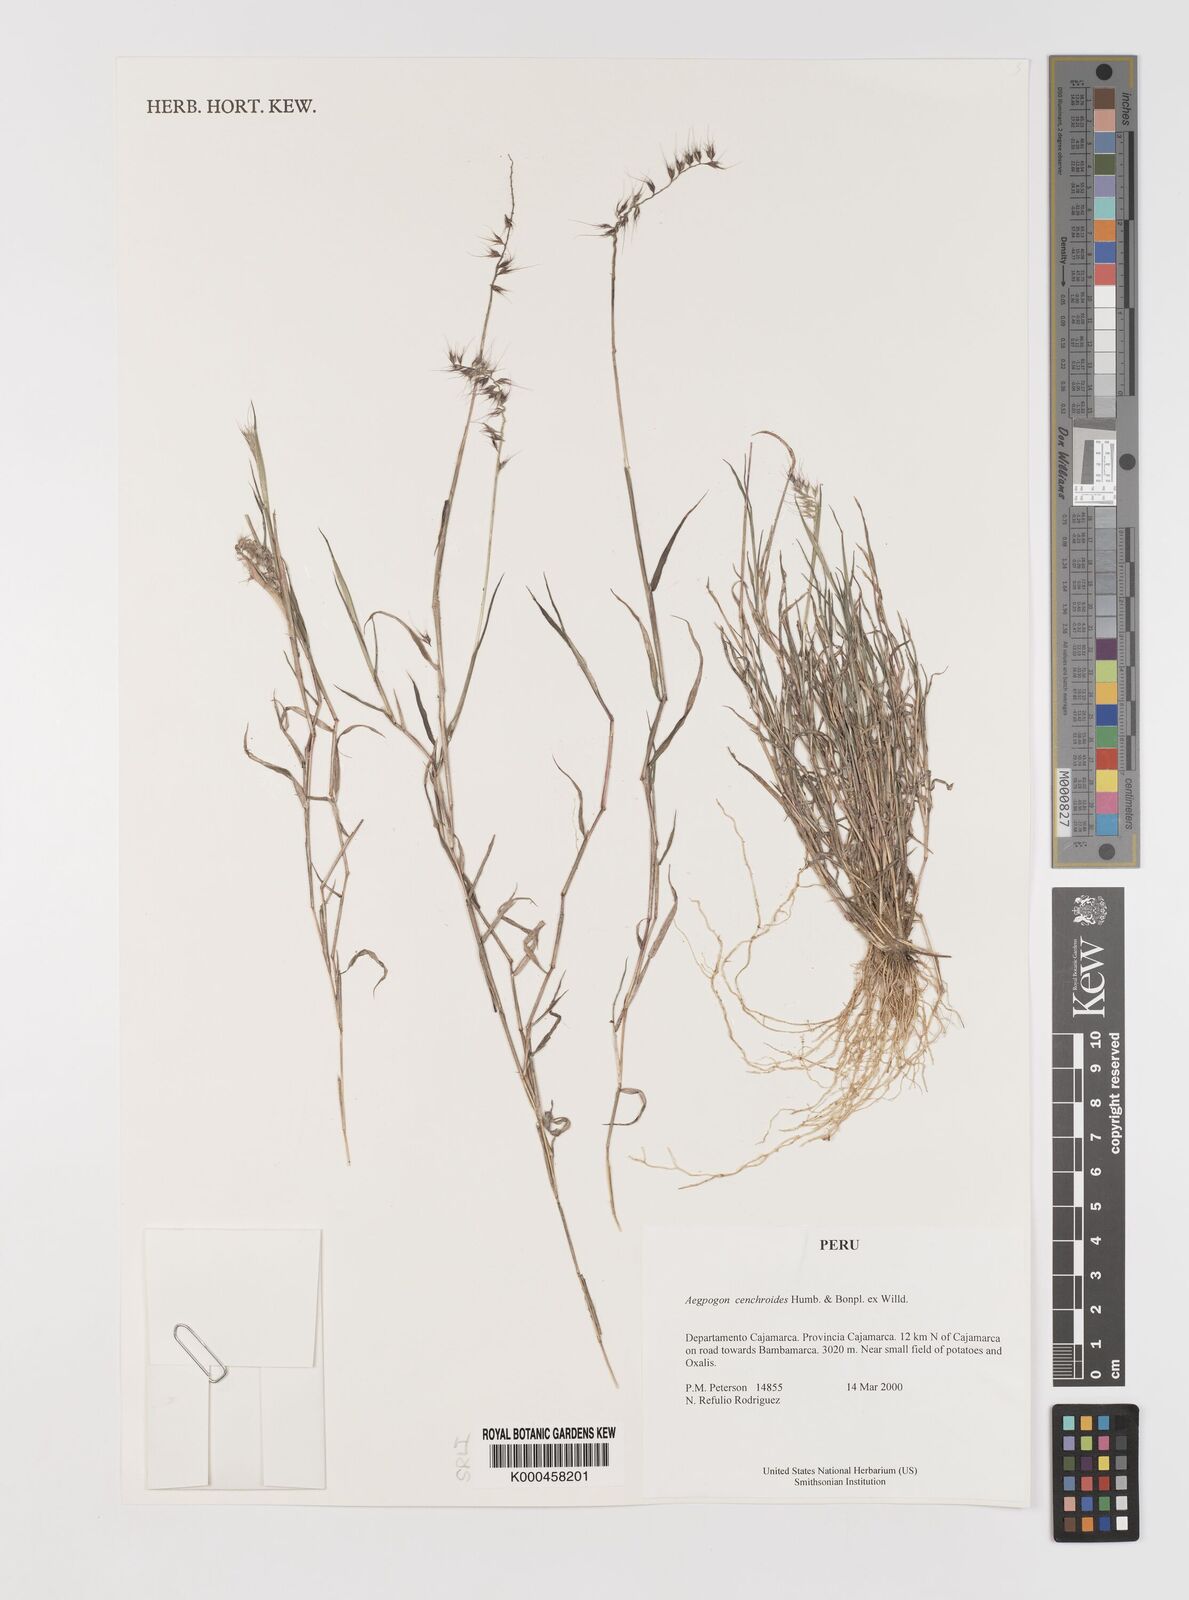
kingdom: Plantae
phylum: Tracheophyta
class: Liliopsida
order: Poales
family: Poaceae
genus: Muhlenbergia
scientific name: Muhlenbergia
